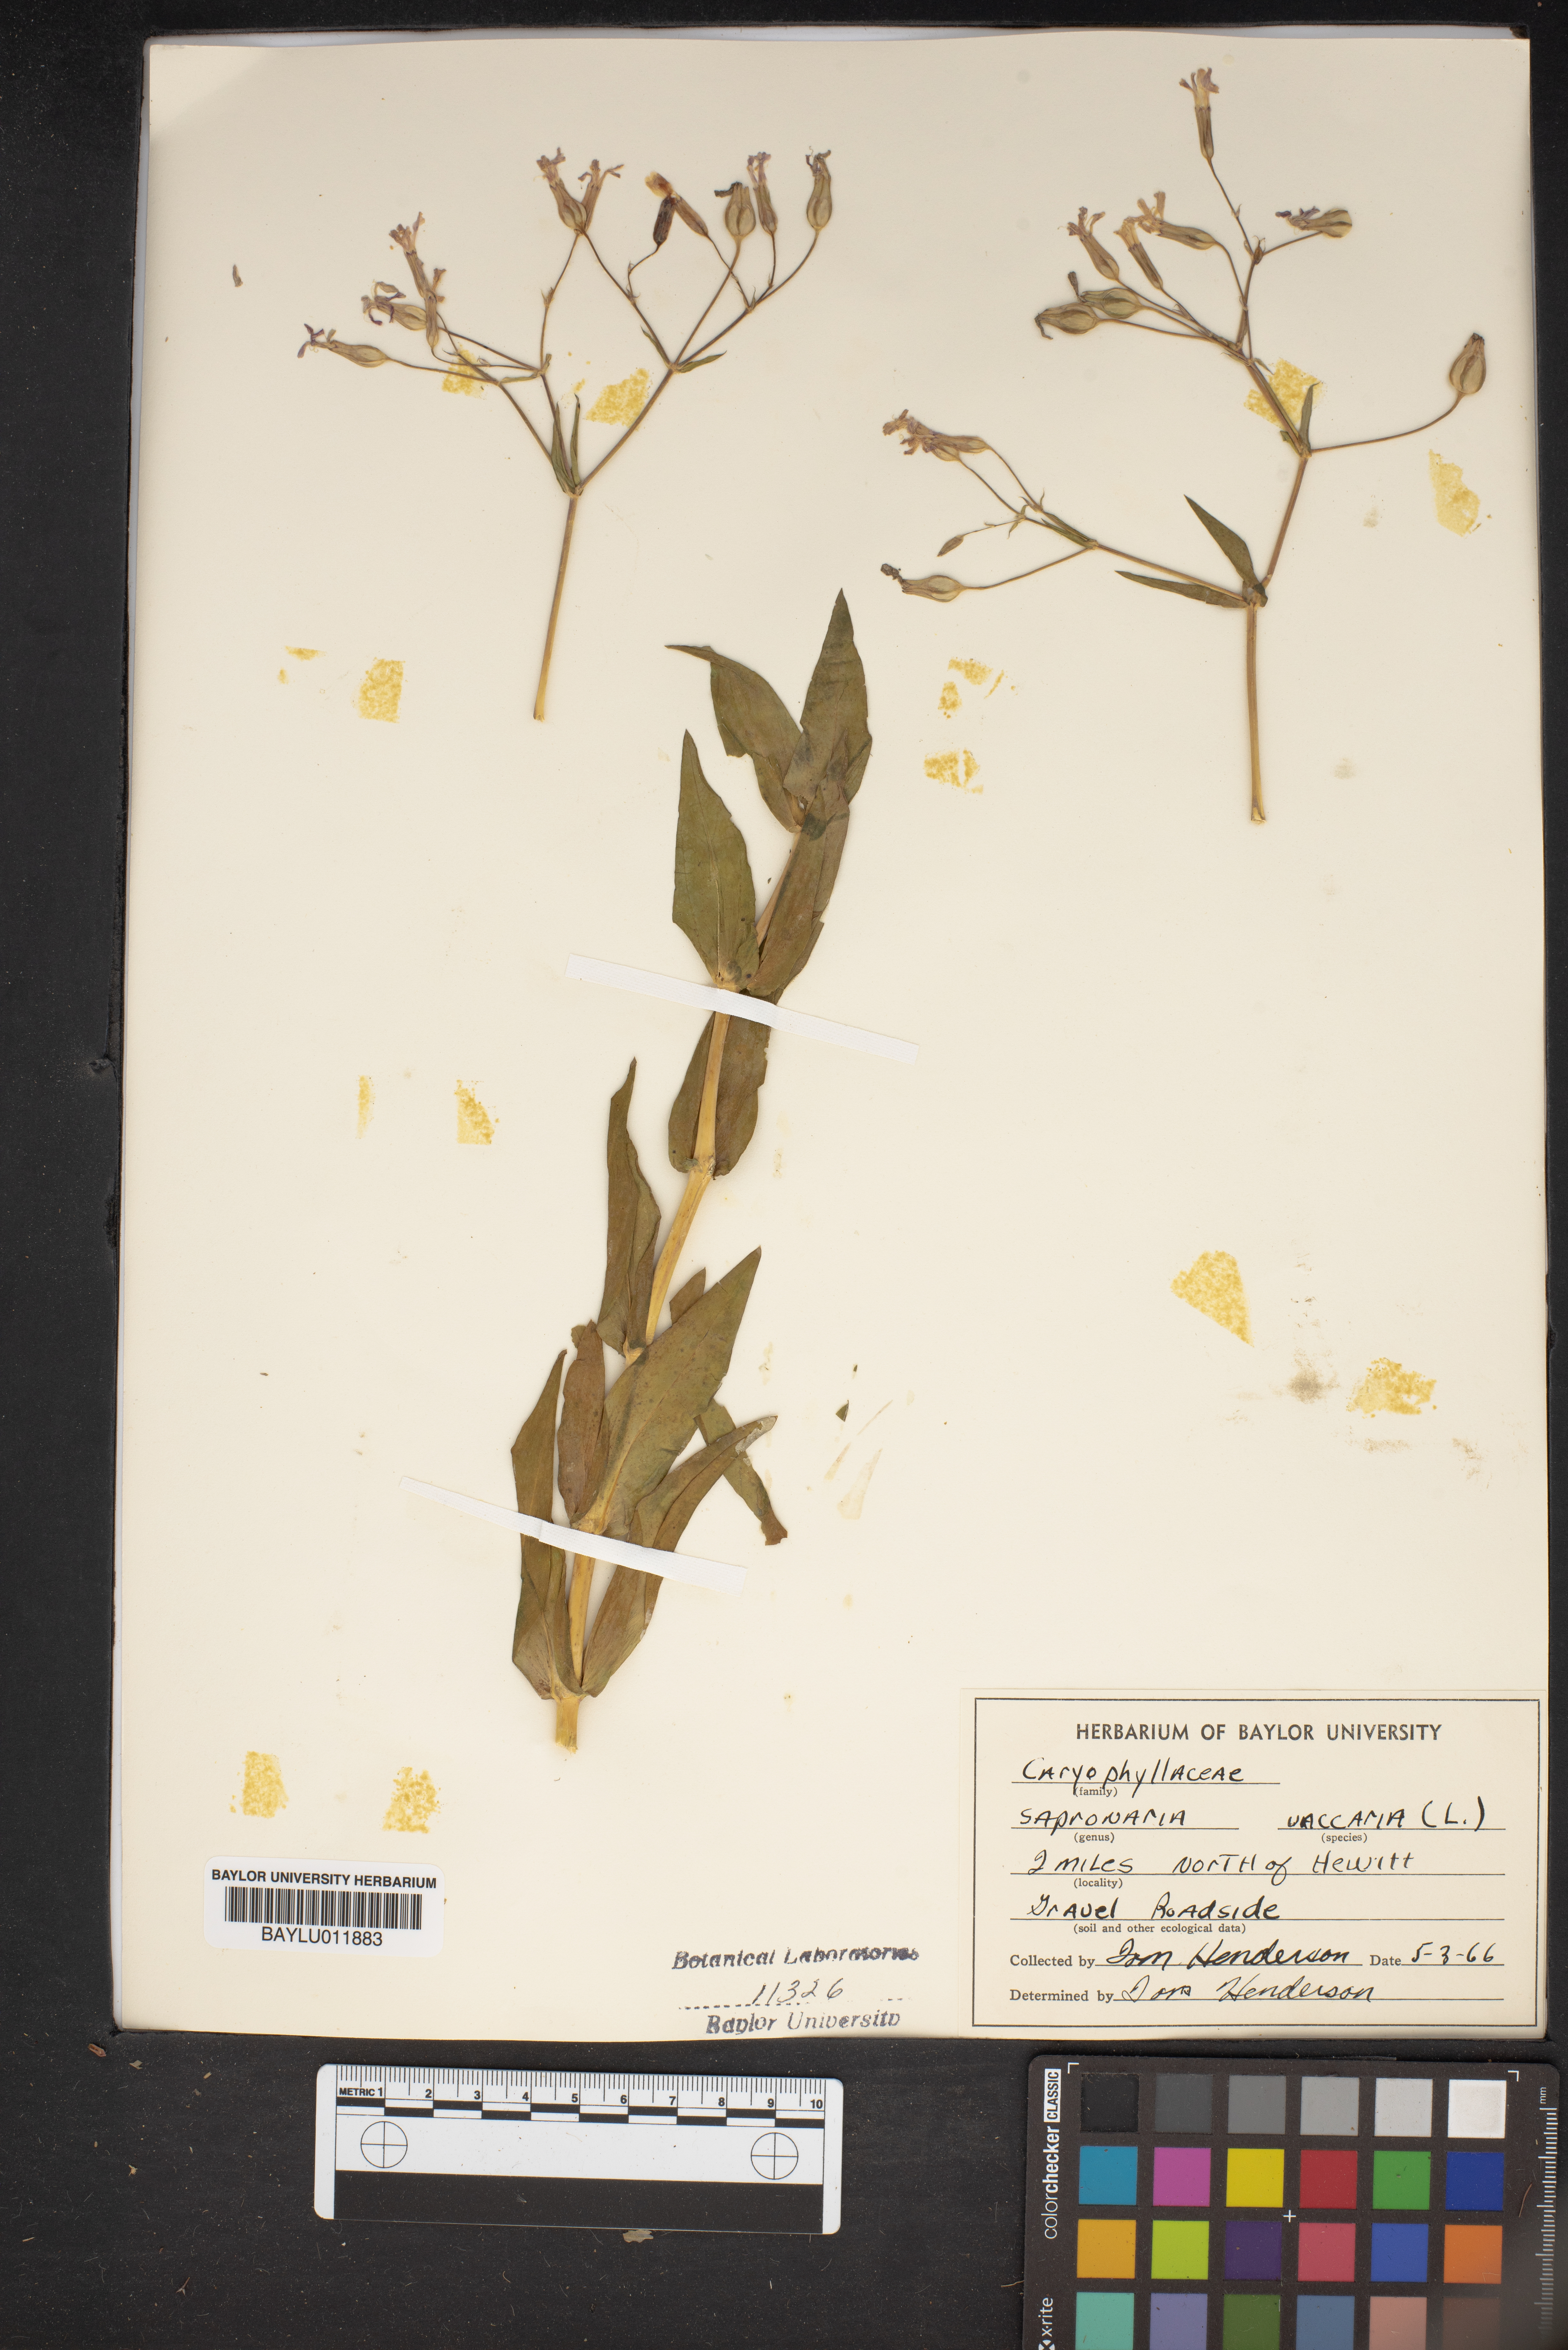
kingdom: Plantae
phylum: Tracheophyta
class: Magnoliopsida
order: Caryophyllales
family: Caryophyllaceae
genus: Gypsophila
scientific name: Gypsophila vaccaria
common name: Cow soapwort
